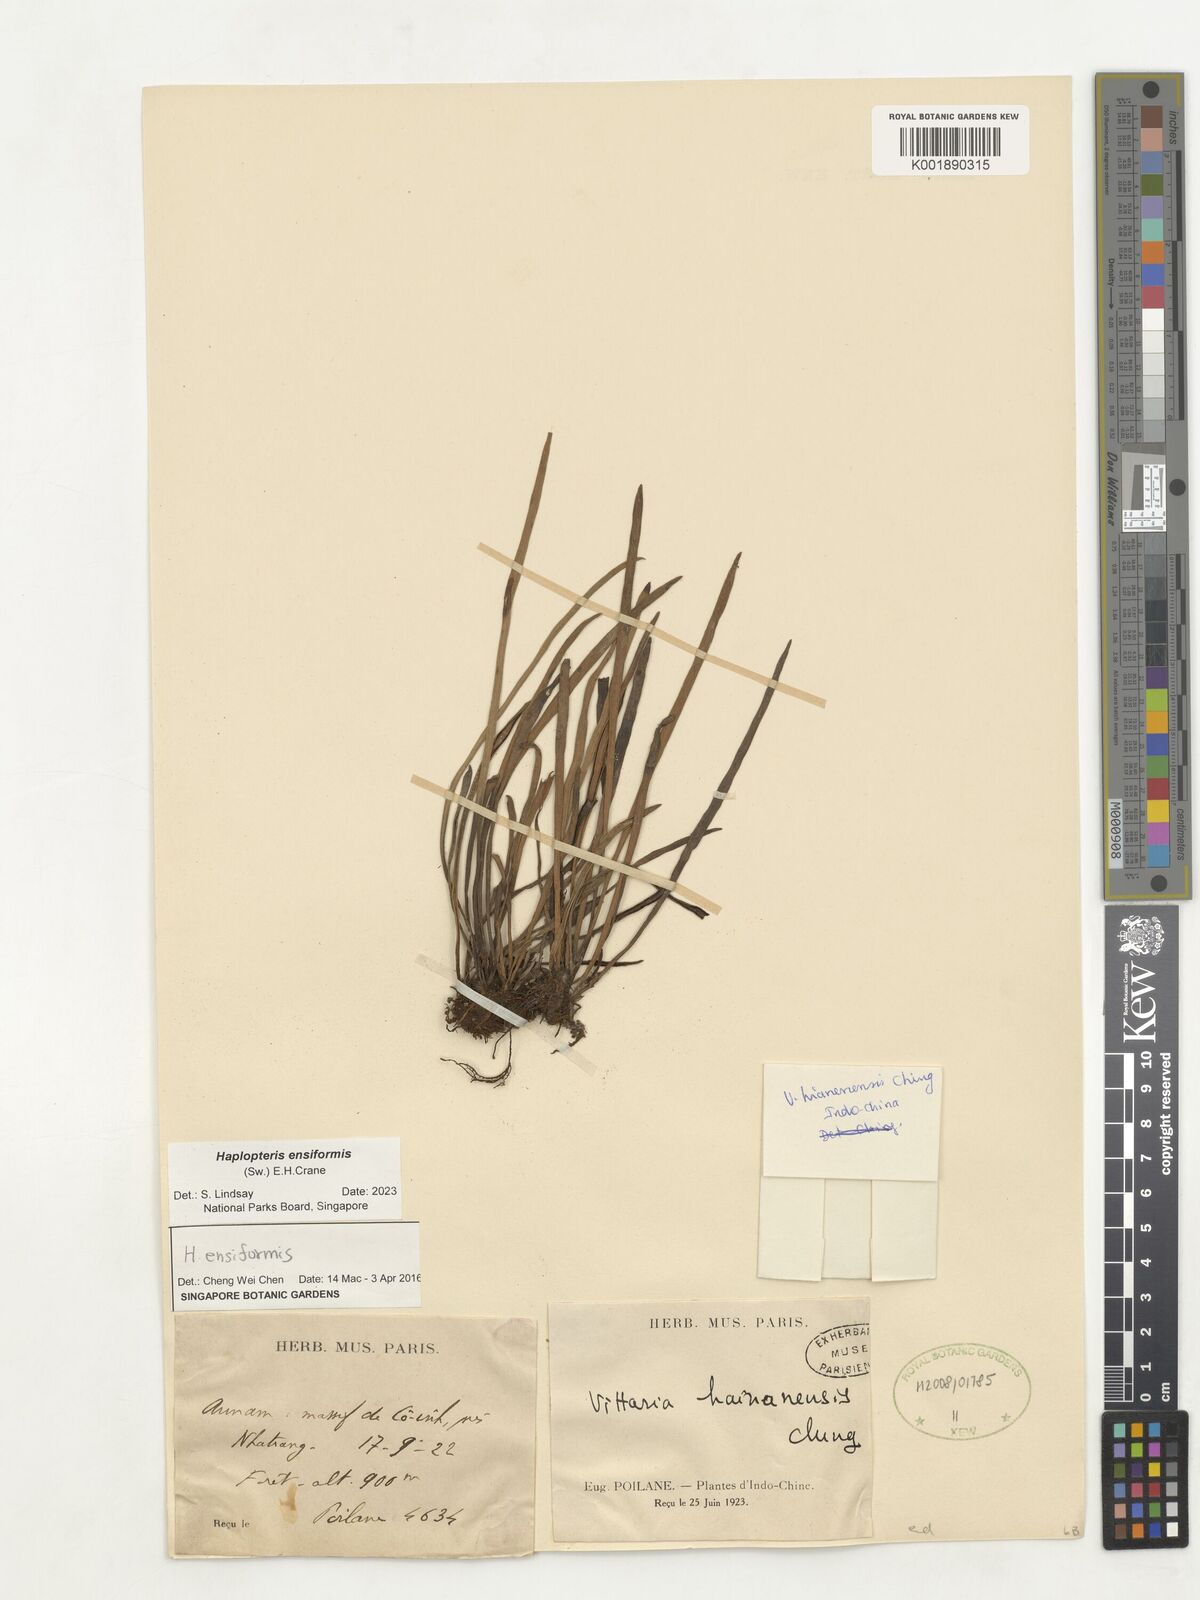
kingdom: Plantae
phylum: Tracheophyta
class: Polypodiopsida
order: Polypodiales
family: Pteridaceae
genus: Haplopteris
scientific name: Haplopteris ensiformis
